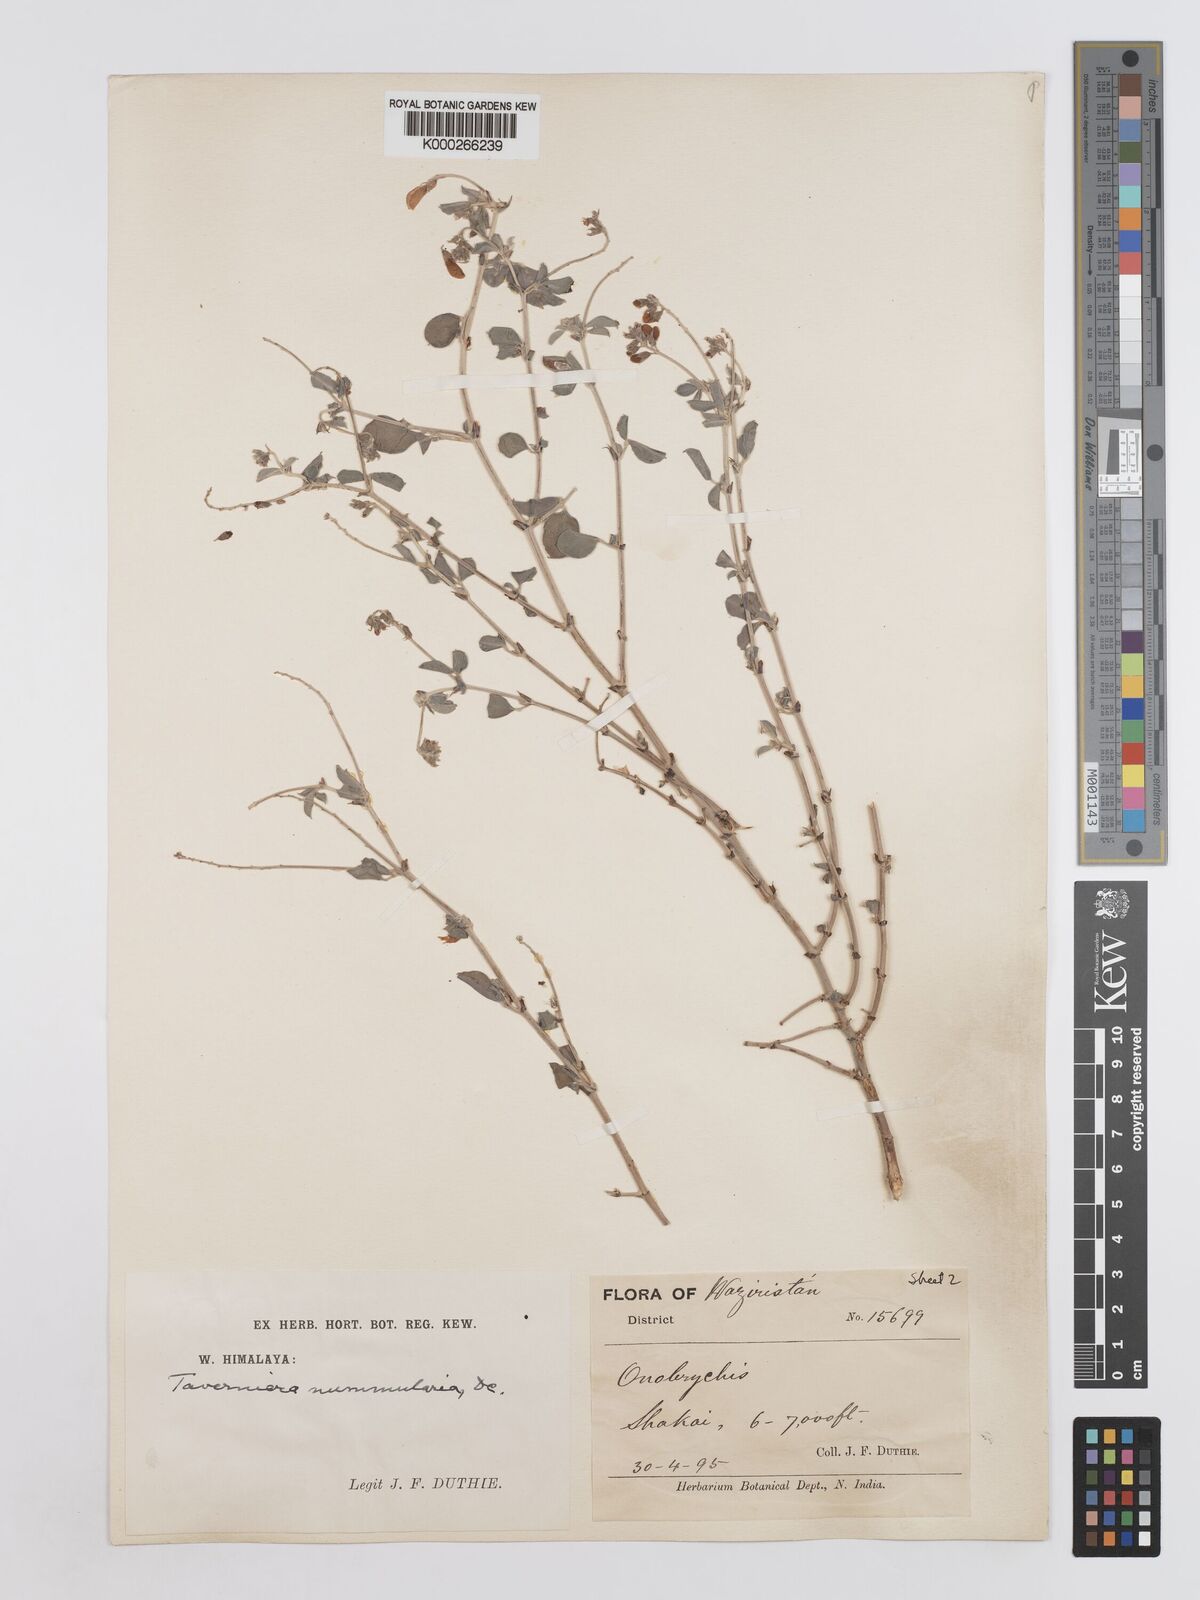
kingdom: Plantae
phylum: Tracheophyta
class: Magnoliopsida
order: Fabales
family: Fabaceae
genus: Taverniera
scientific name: Taverniera nummularia
